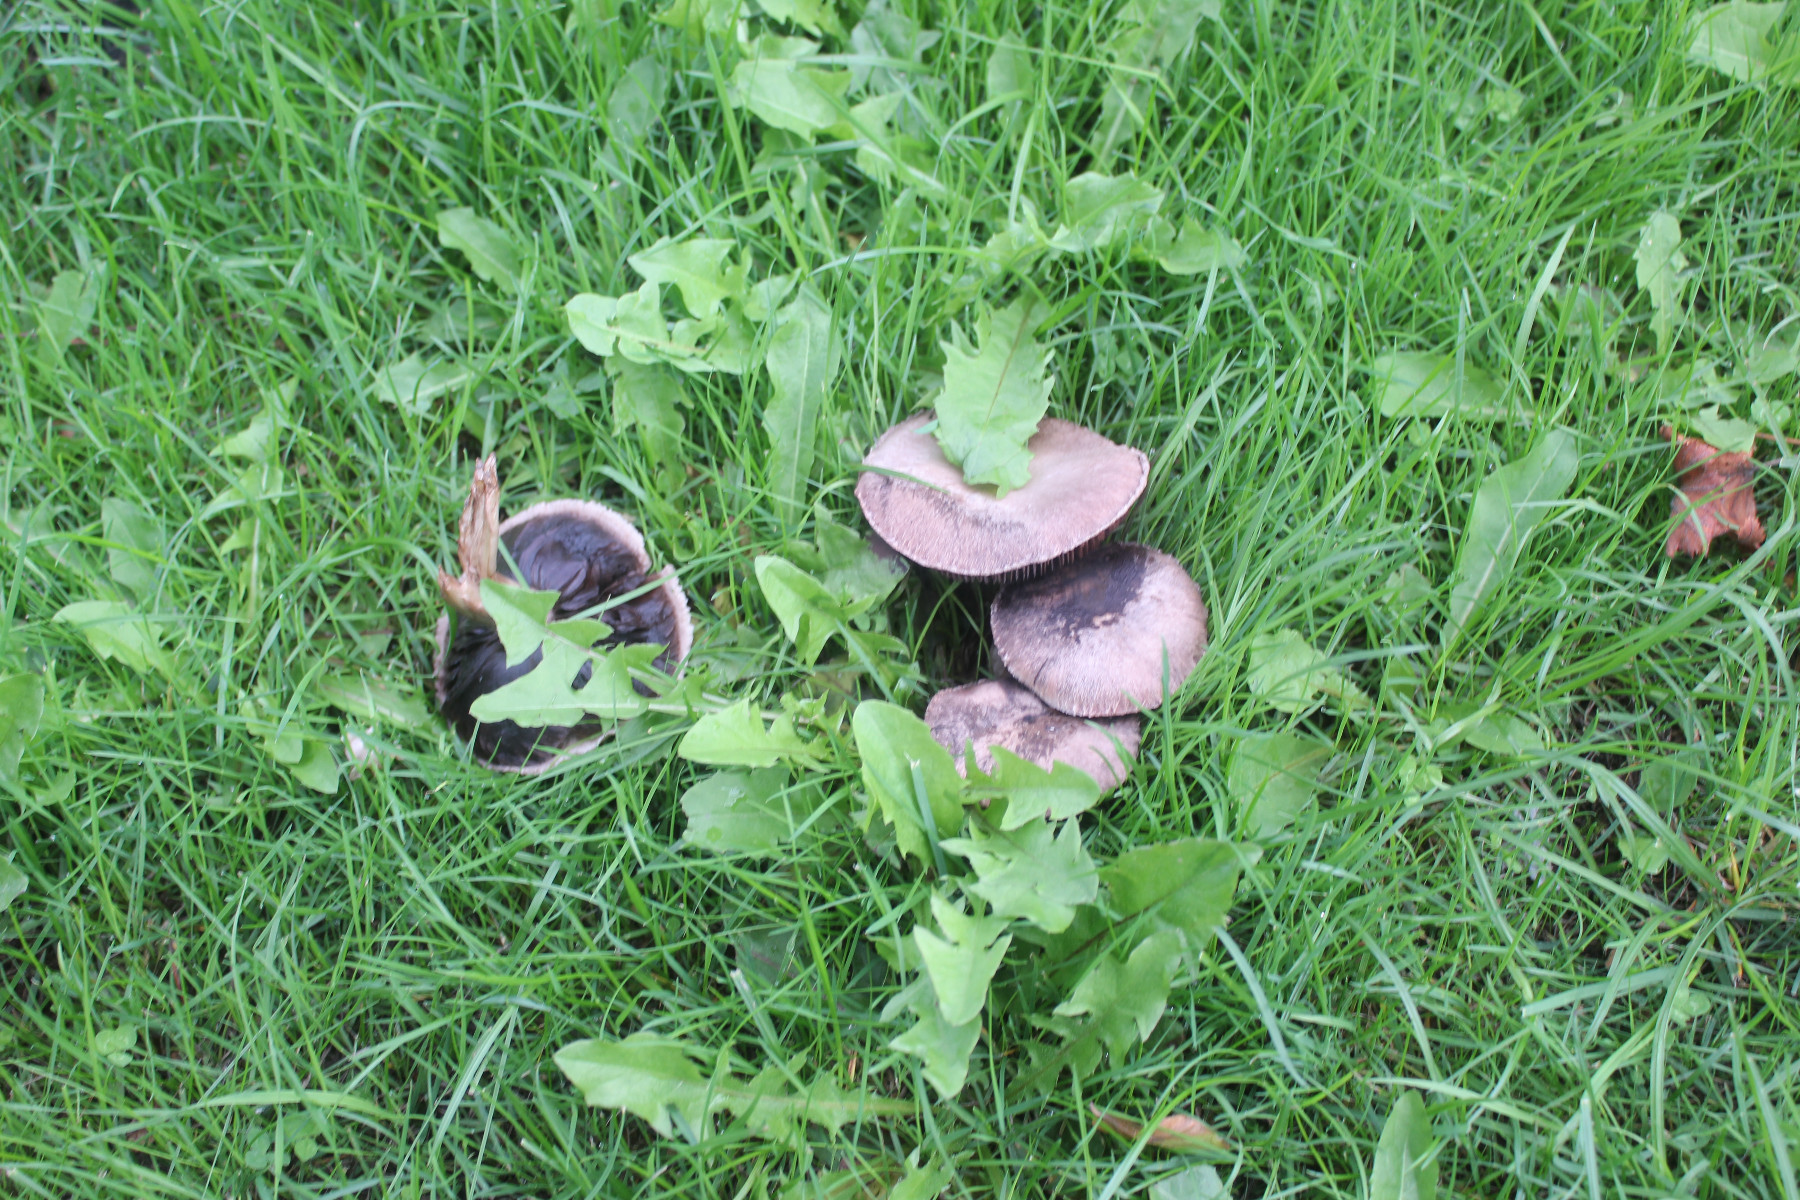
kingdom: Fungi
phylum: Basidiomycota
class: Agaricomycetes
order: Agaricales
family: Agaricaceae
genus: Agaricus
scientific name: Agaricus campestris
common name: mark-champignon
